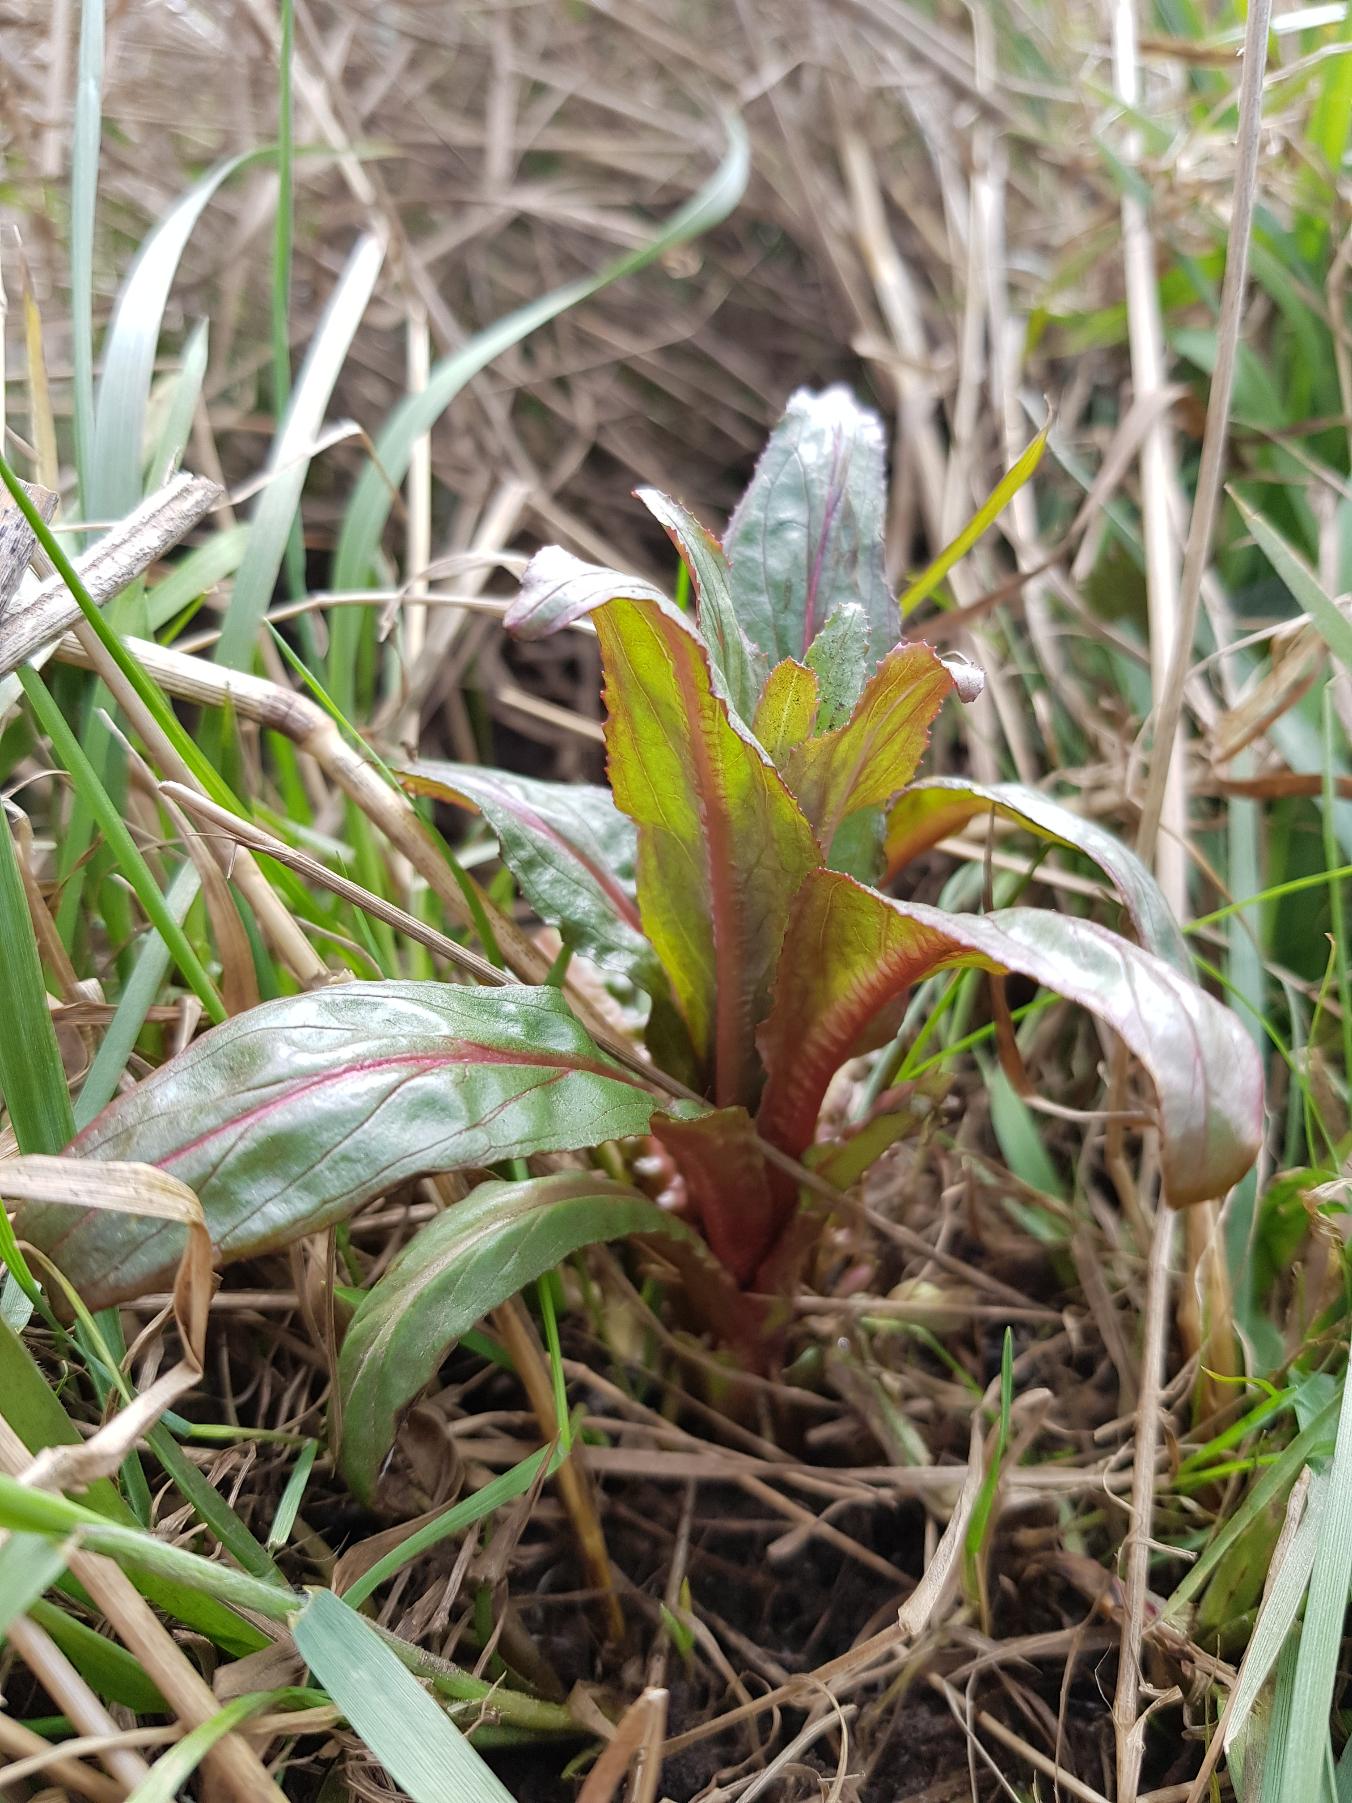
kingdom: Plantae
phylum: Tracheophyta
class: Magnoliopsida
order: Myrtales
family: Onagraceae
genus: Epilobium
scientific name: Epilobium hirsutum
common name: Lådden dueurt
